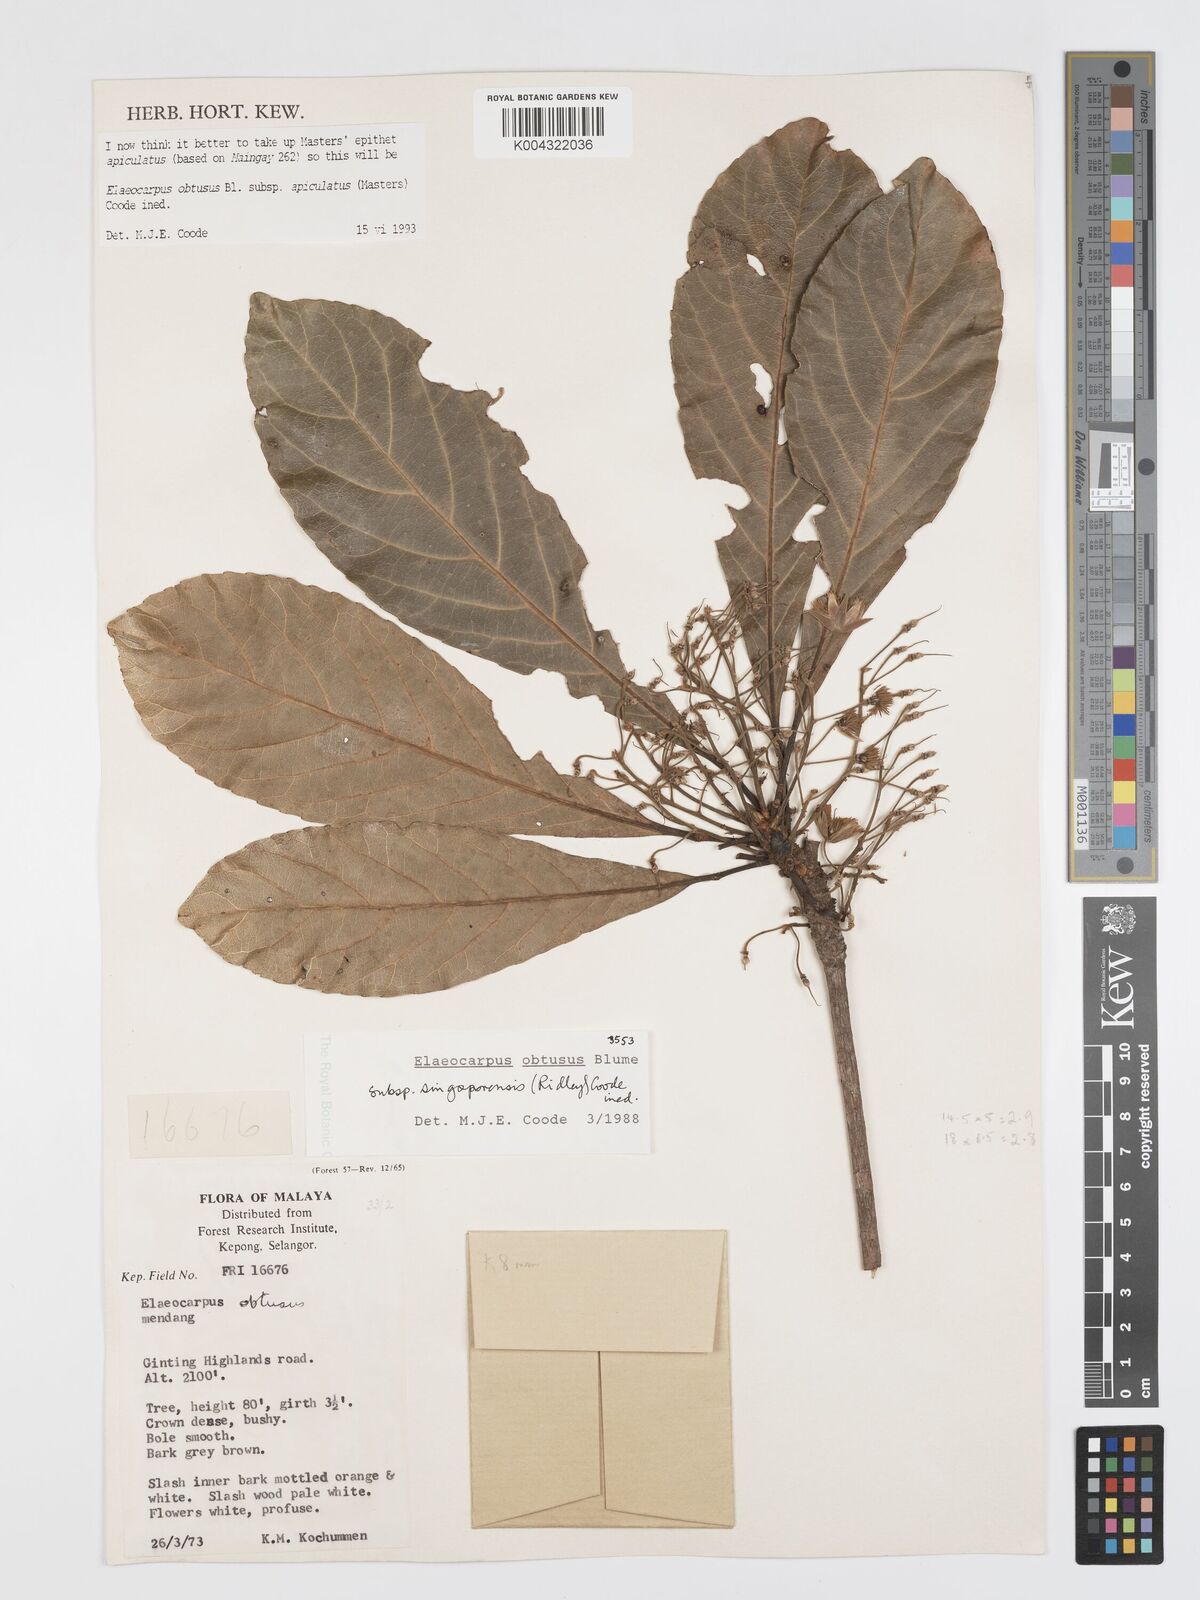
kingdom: Plantae
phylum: Tracheophyta
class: Magnoliopsida
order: Oxalidales
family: Elaeocarpaceae
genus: Elaeocarpus
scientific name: Elaeocarpus obtusus
